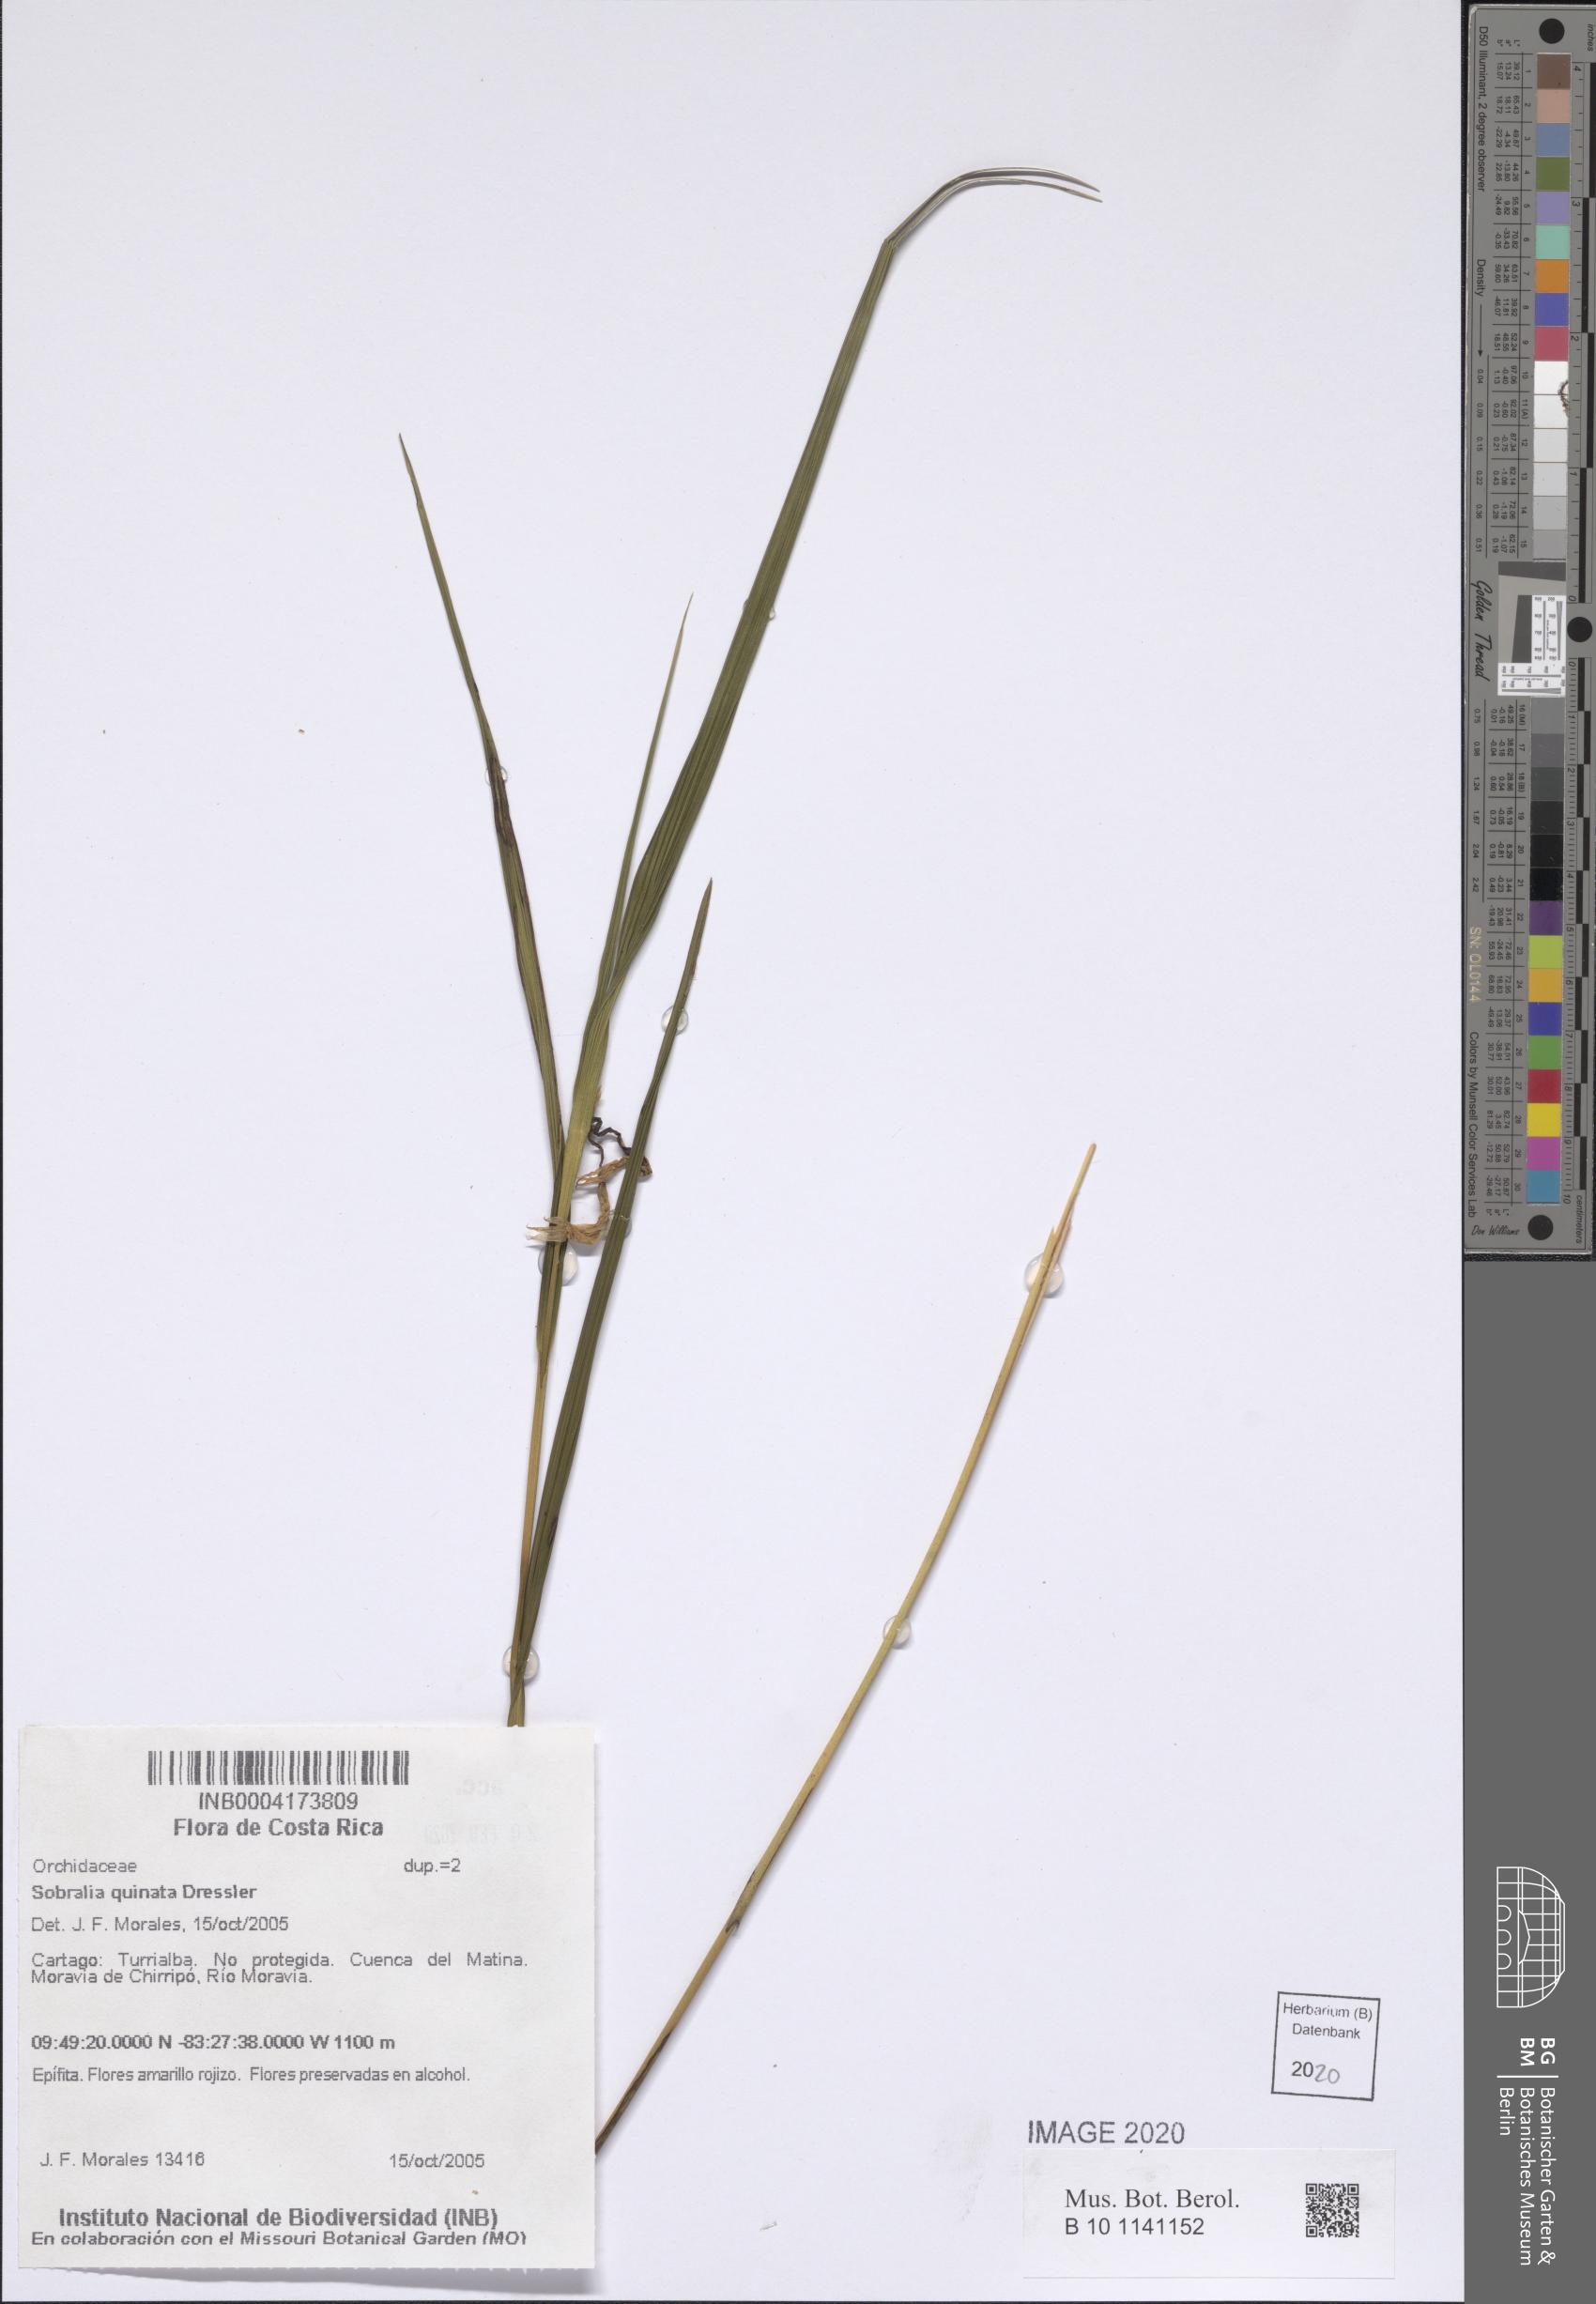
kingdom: Plantae
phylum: Tracheophyta
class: Liliopsida
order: Asparagales
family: Orchidaceae
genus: Sobralia
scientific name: Sobralia quinata
